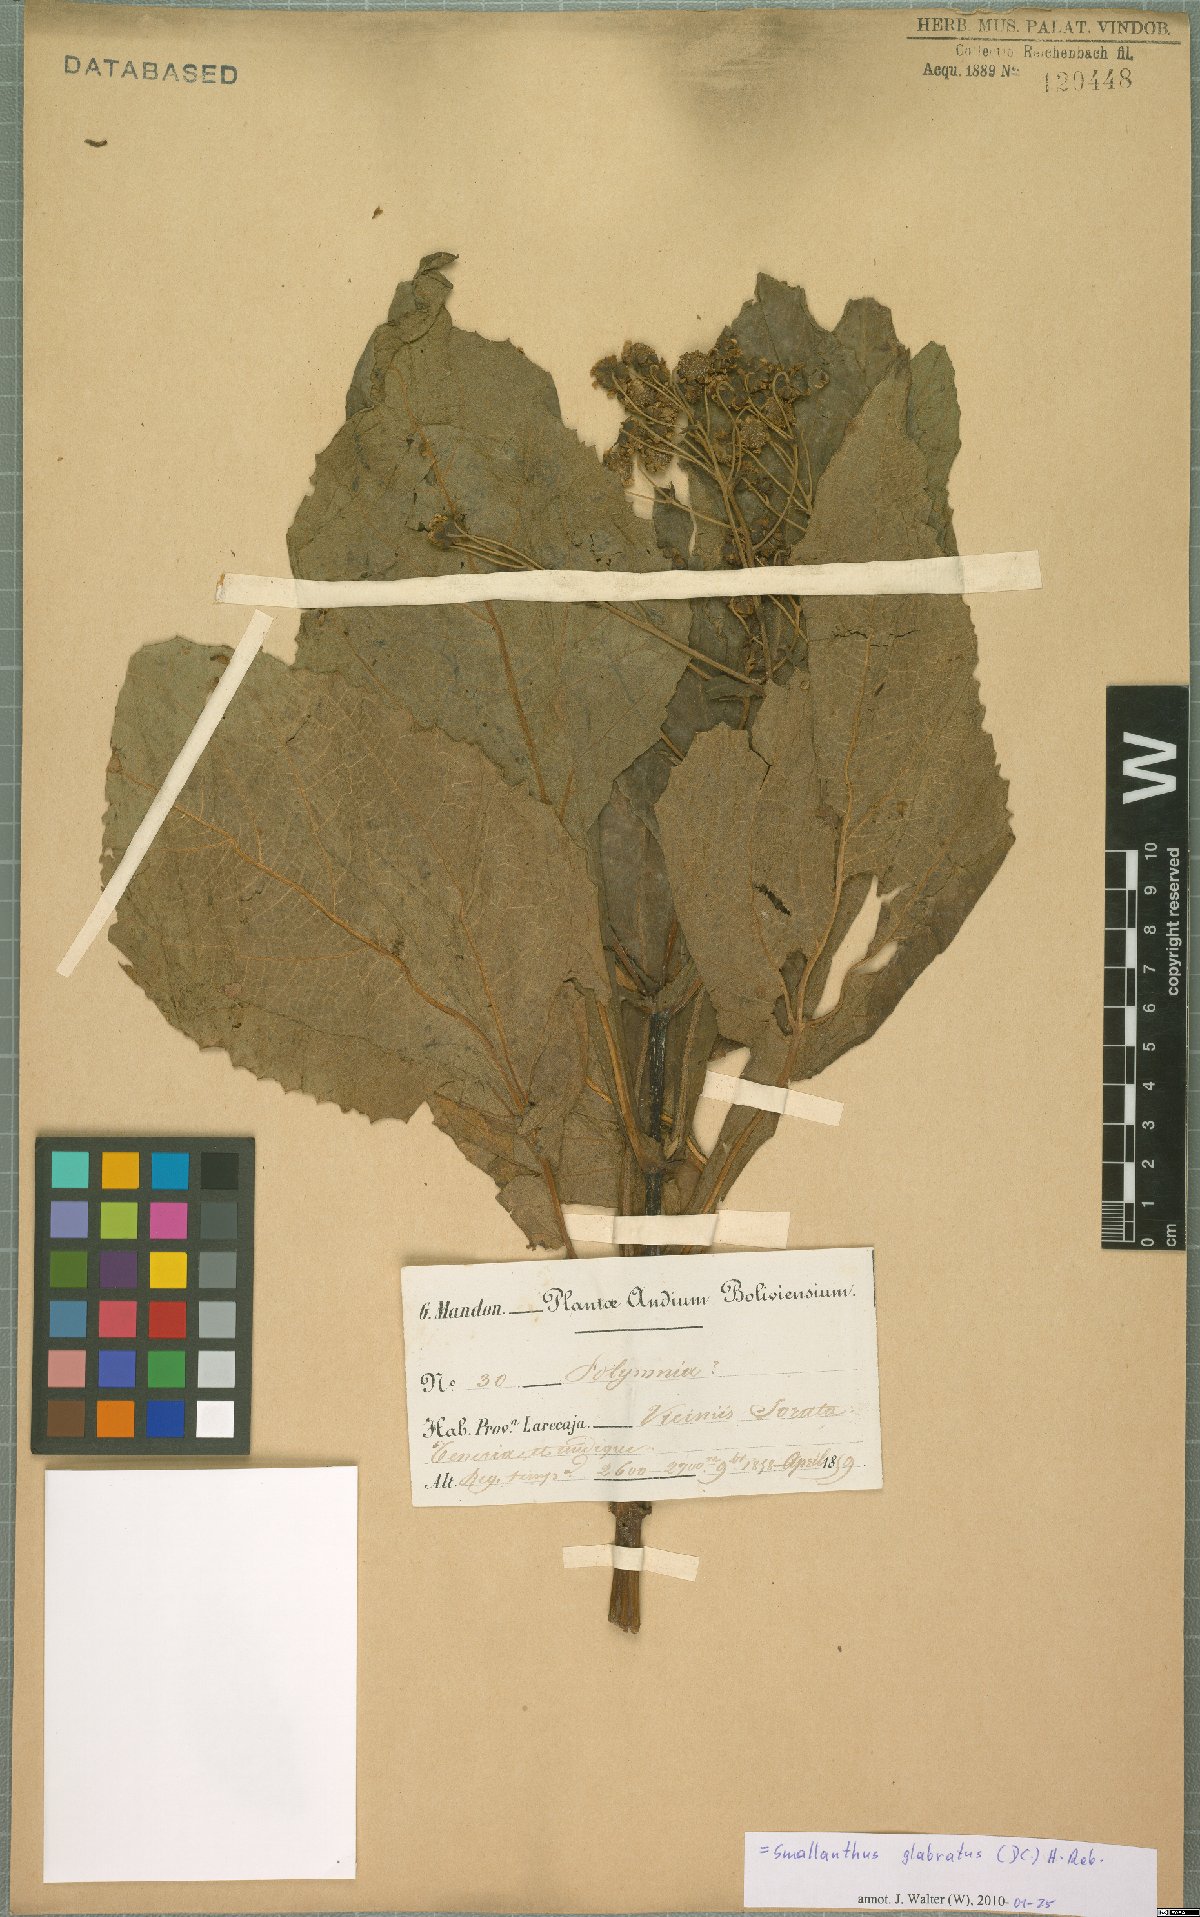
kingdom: Plantae
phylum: Tracheophyta
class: Magnoliopsida
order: Asterales
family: Asteraceae
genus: Smallanthus
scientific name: Smallanthus glabratus
